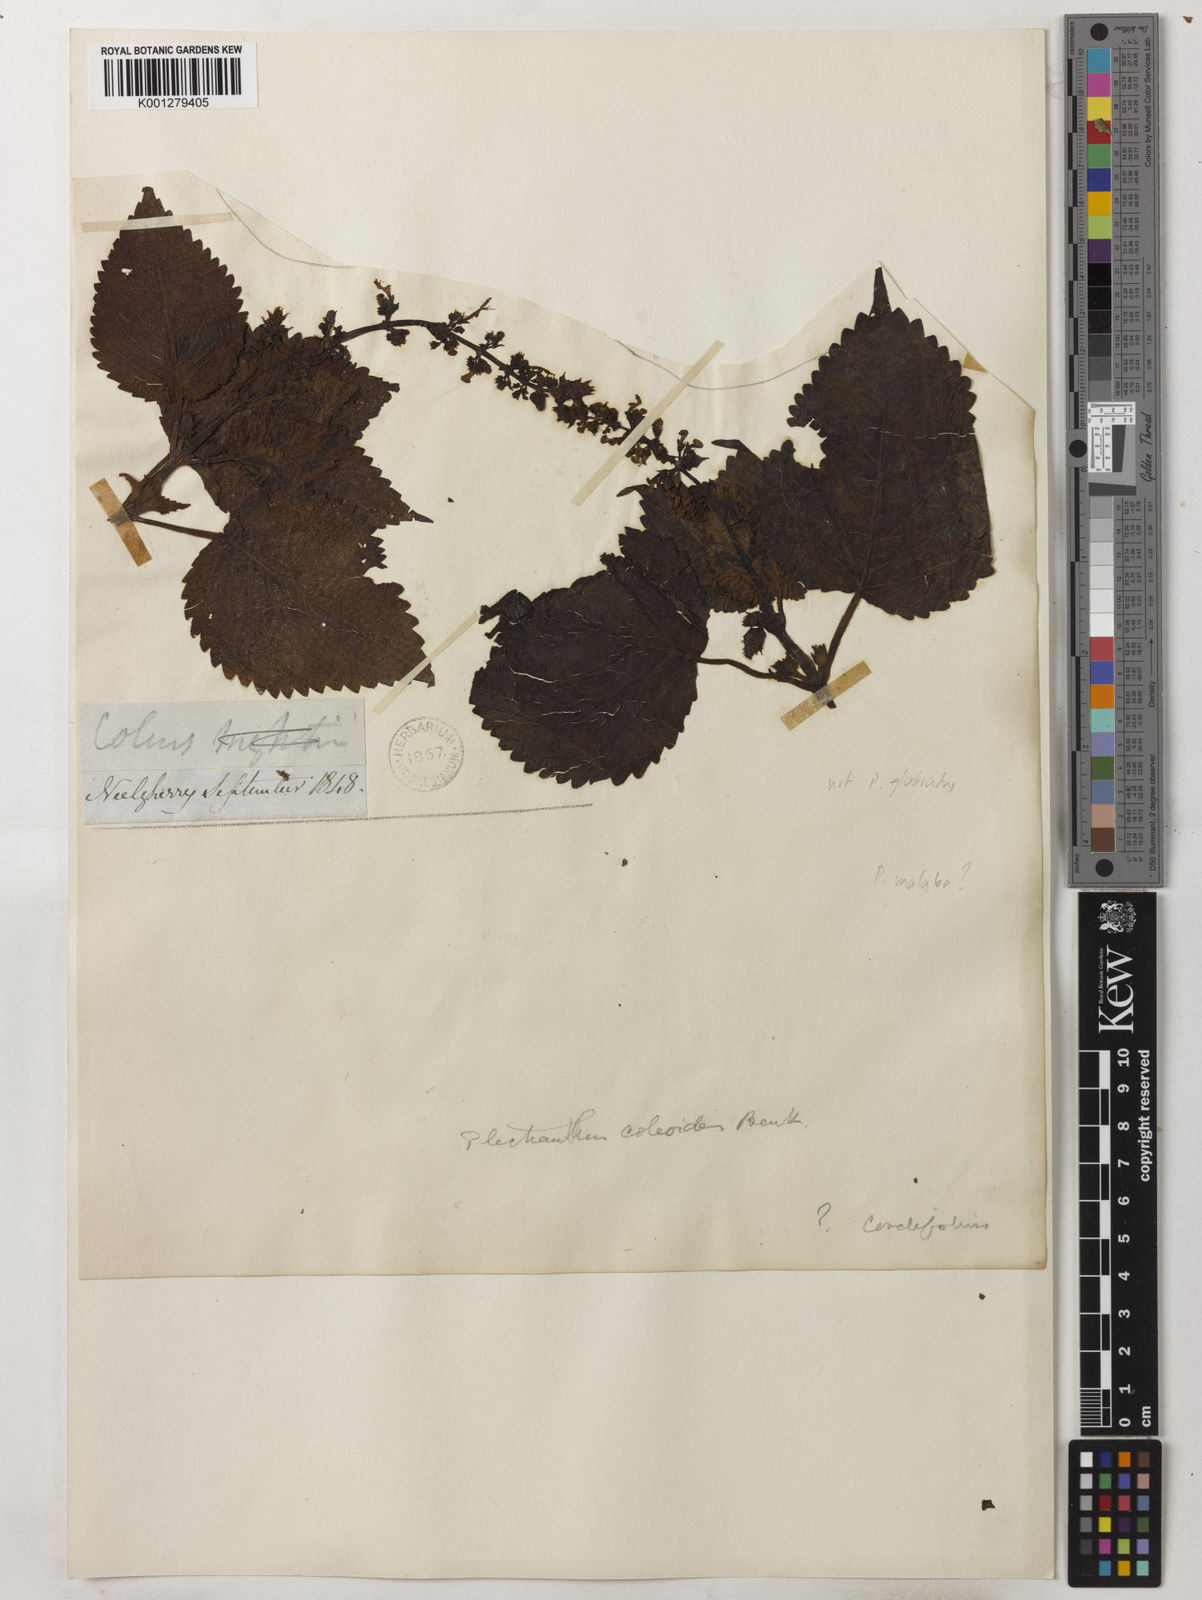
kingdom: Plantae
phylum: Tracheophyta
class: Magnoliopsida
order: Lamiales
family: Lamiaceae
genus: Coleus
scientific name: Coleus paniculatus
